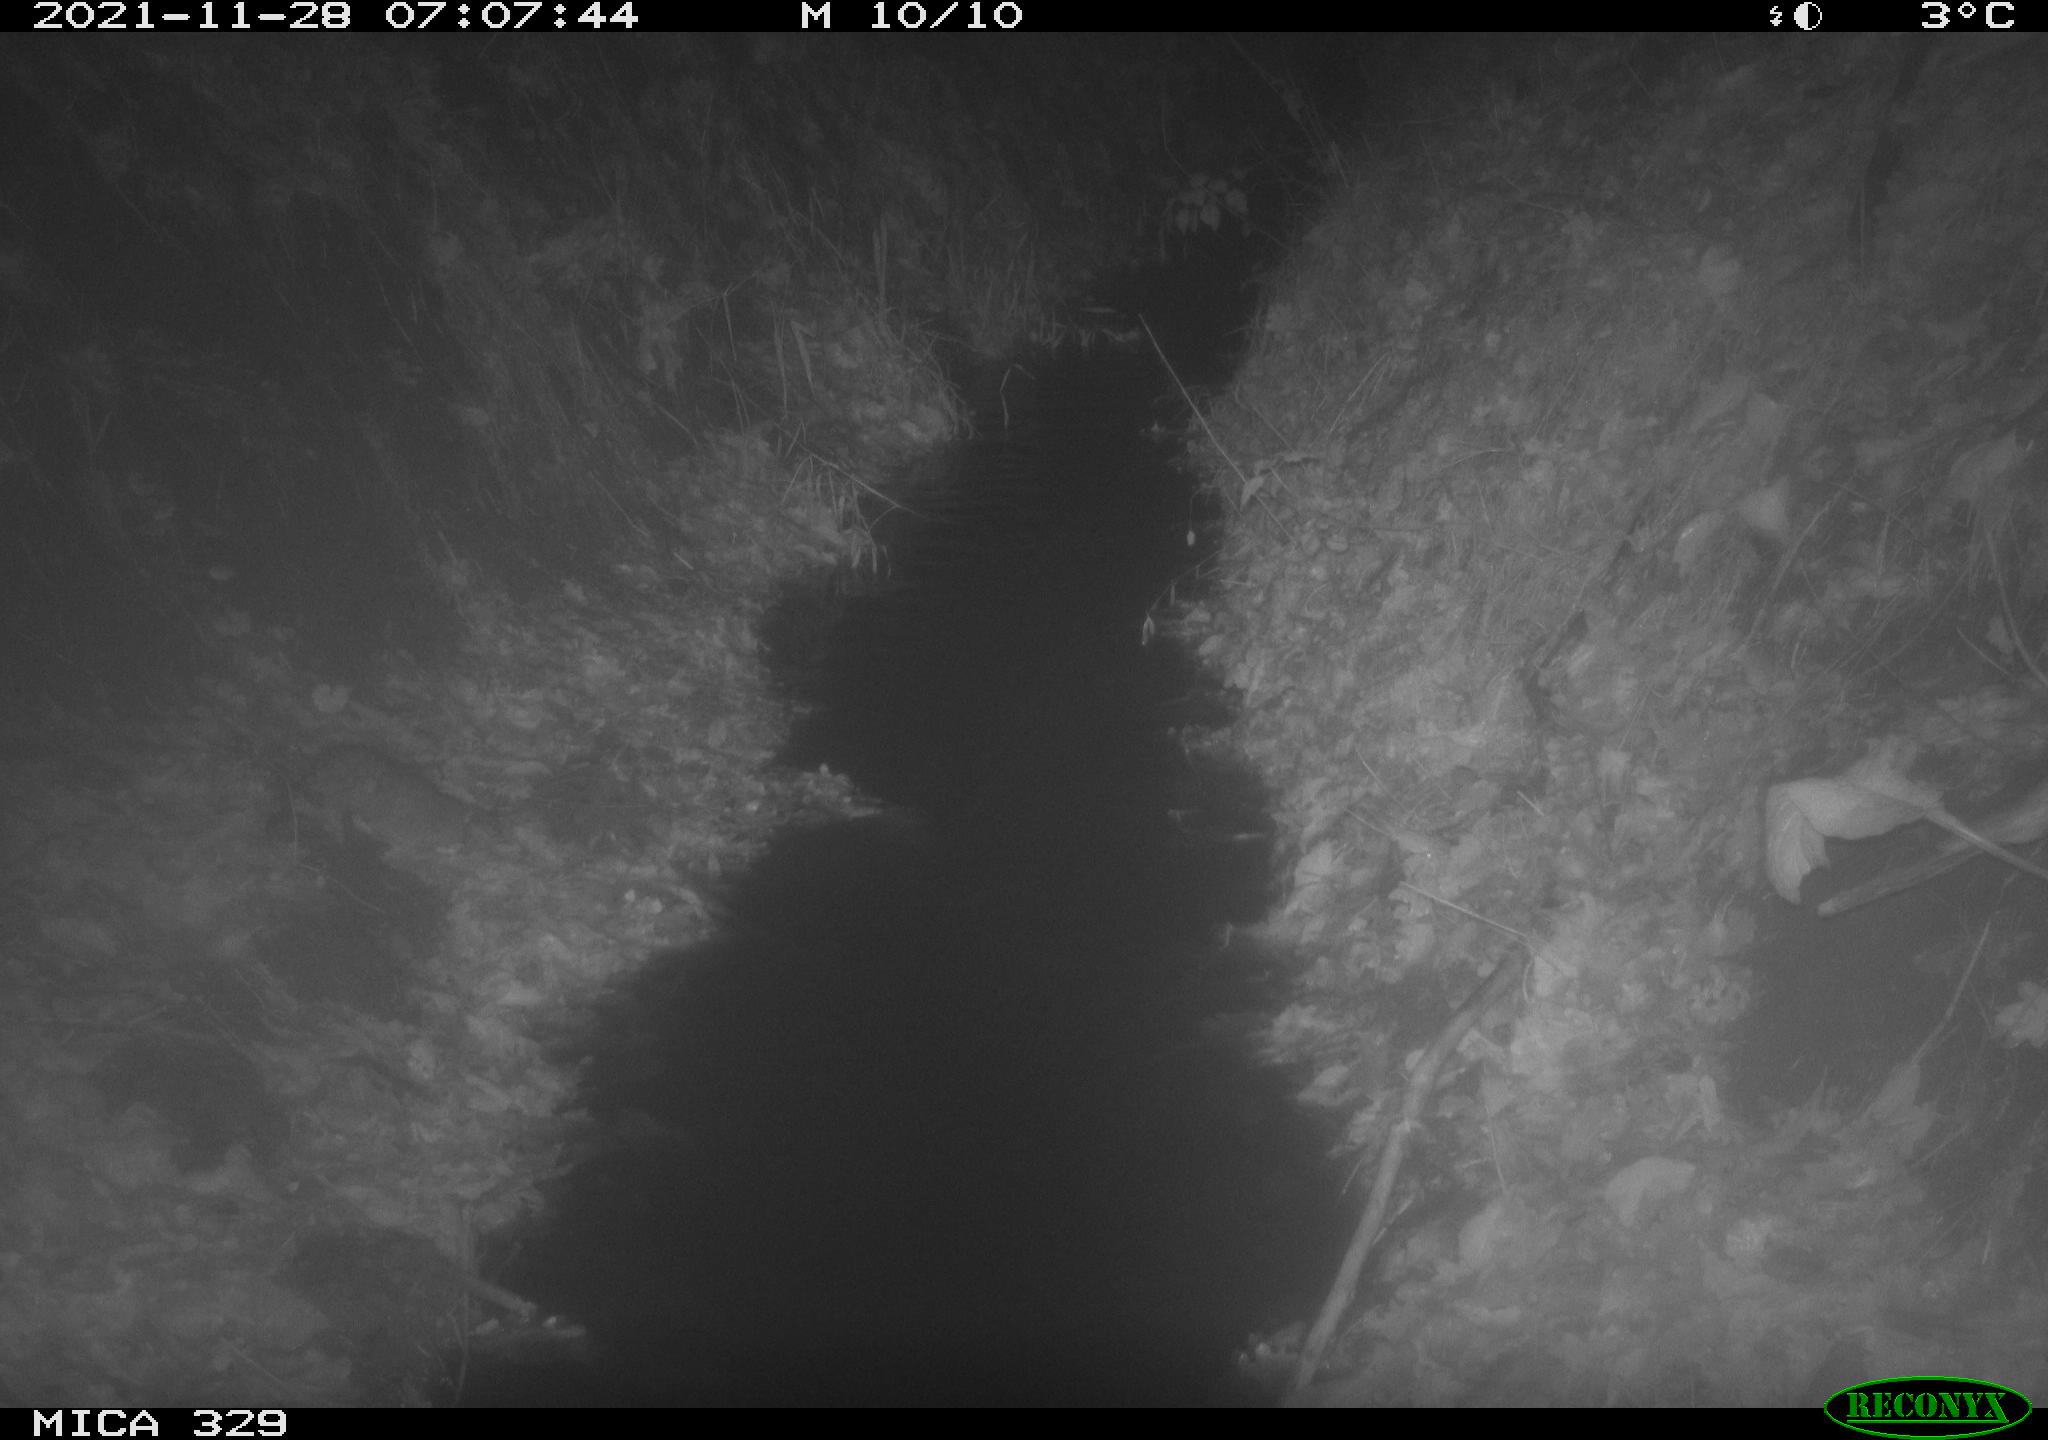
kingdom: Animalia
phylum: Chordata
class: Mammalia
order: Rodentia
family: Muridae
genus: Rattus
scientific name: Rattus norvegicus
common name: Brown rat
